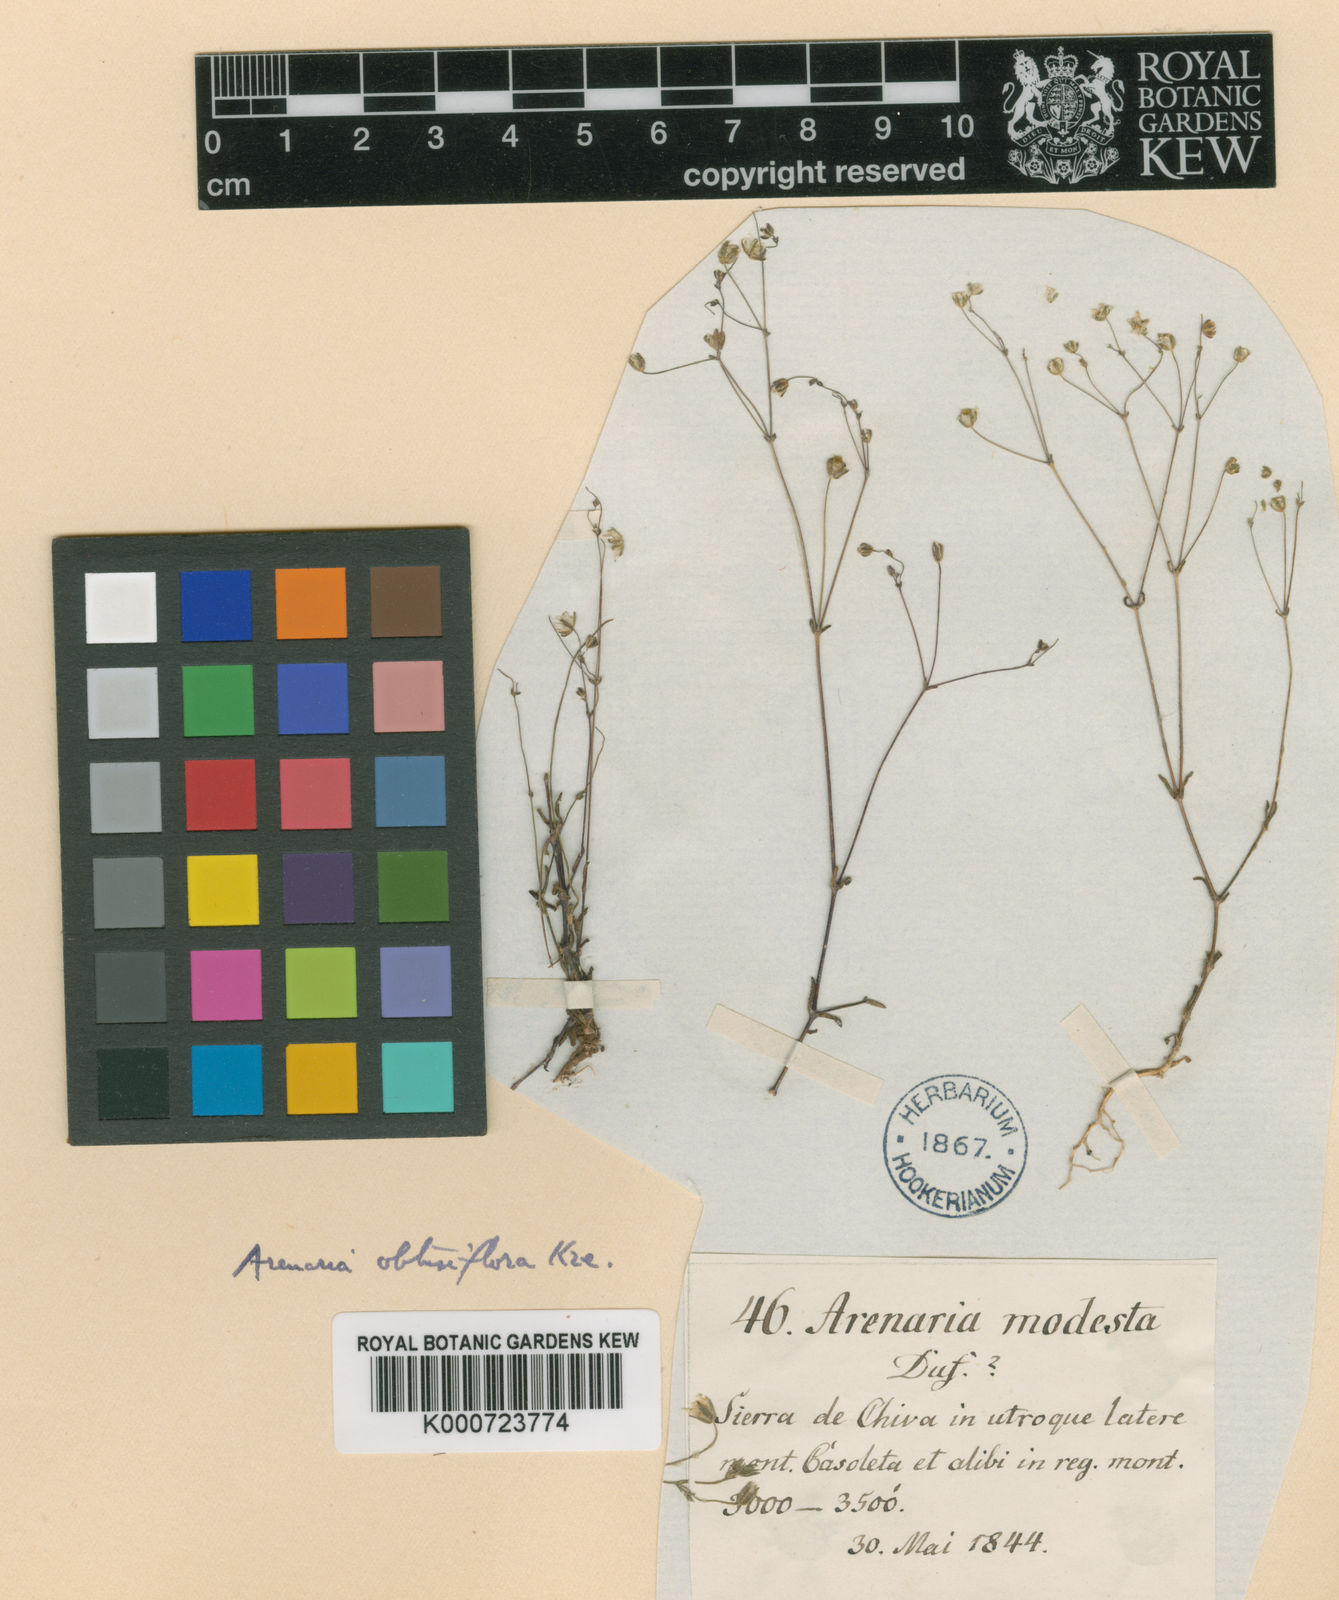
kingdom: Plantae
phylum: Tracheophyta
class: Magnoliopsida
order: Caryophyllales
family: Caryophyllaceae
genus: Arenaria
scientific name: Arenaria obtusiflora
